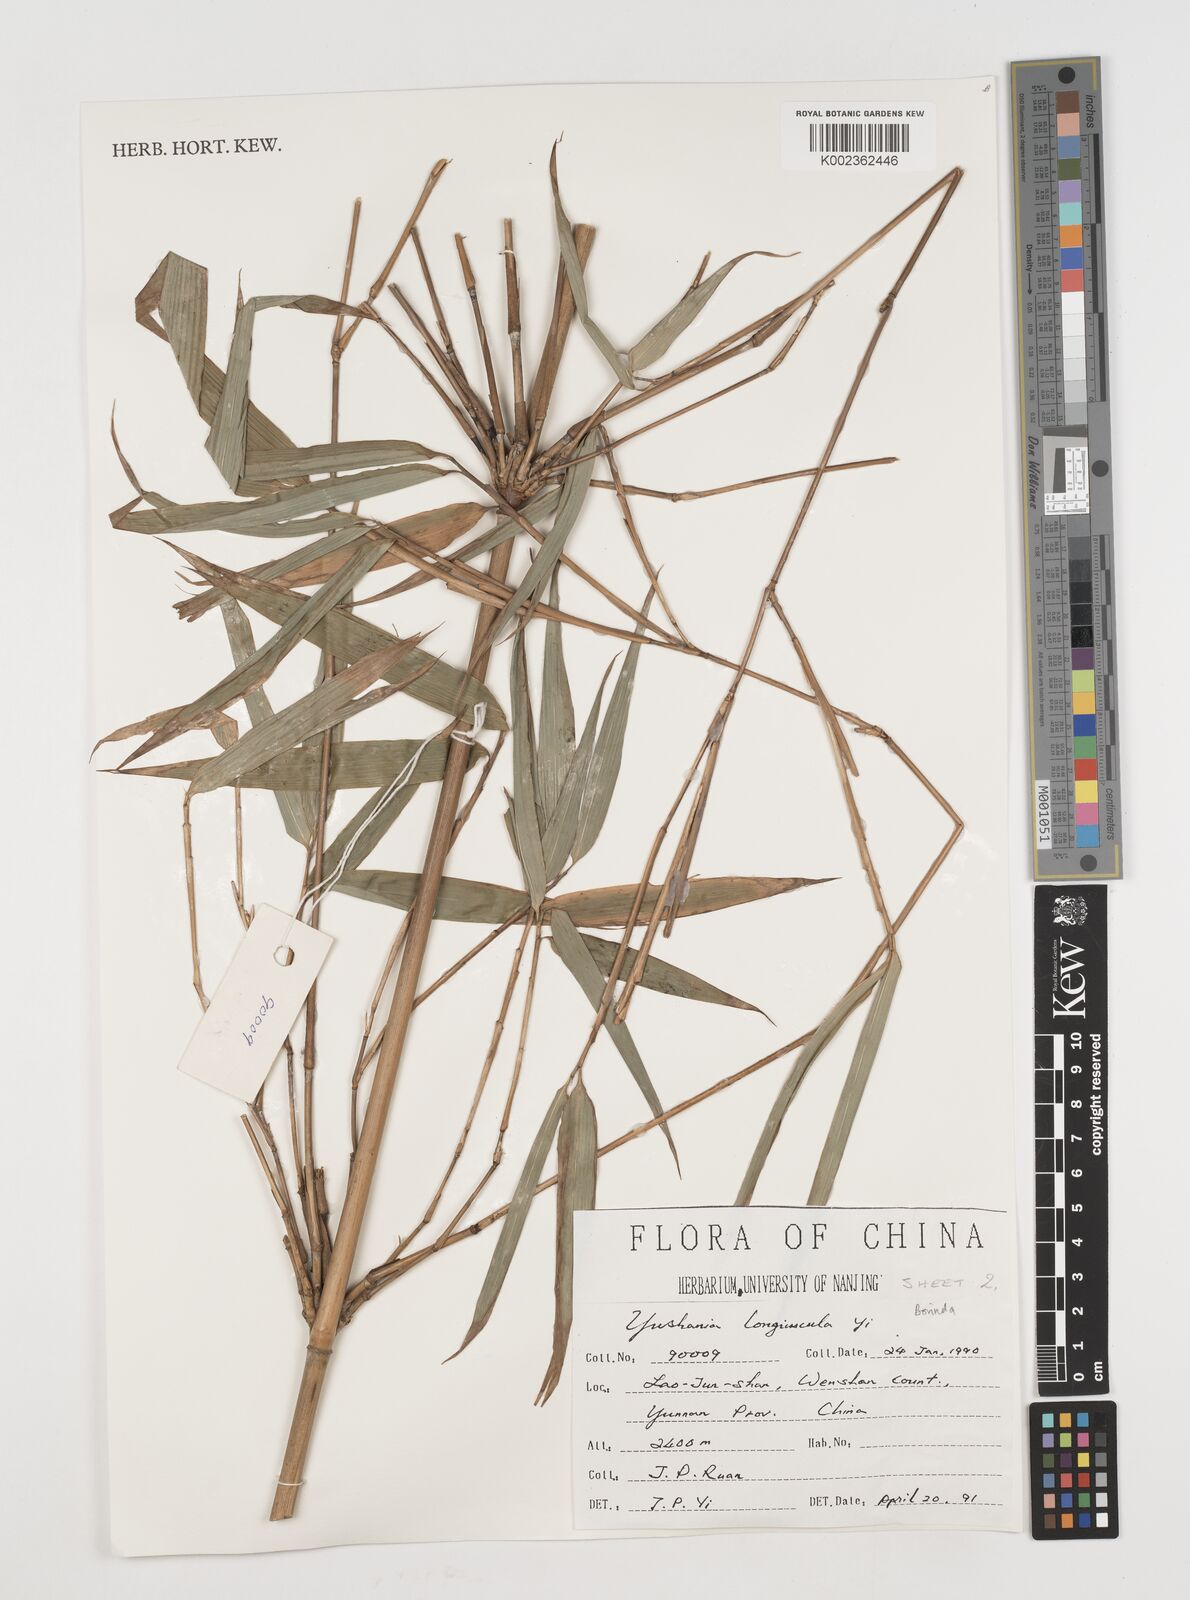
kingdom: Plantae
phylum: Tracheophyta
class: Liliopsida
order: Poales
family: Poaceae
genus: Chimonocalamus
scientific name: Chimonocalamus longiusculus
